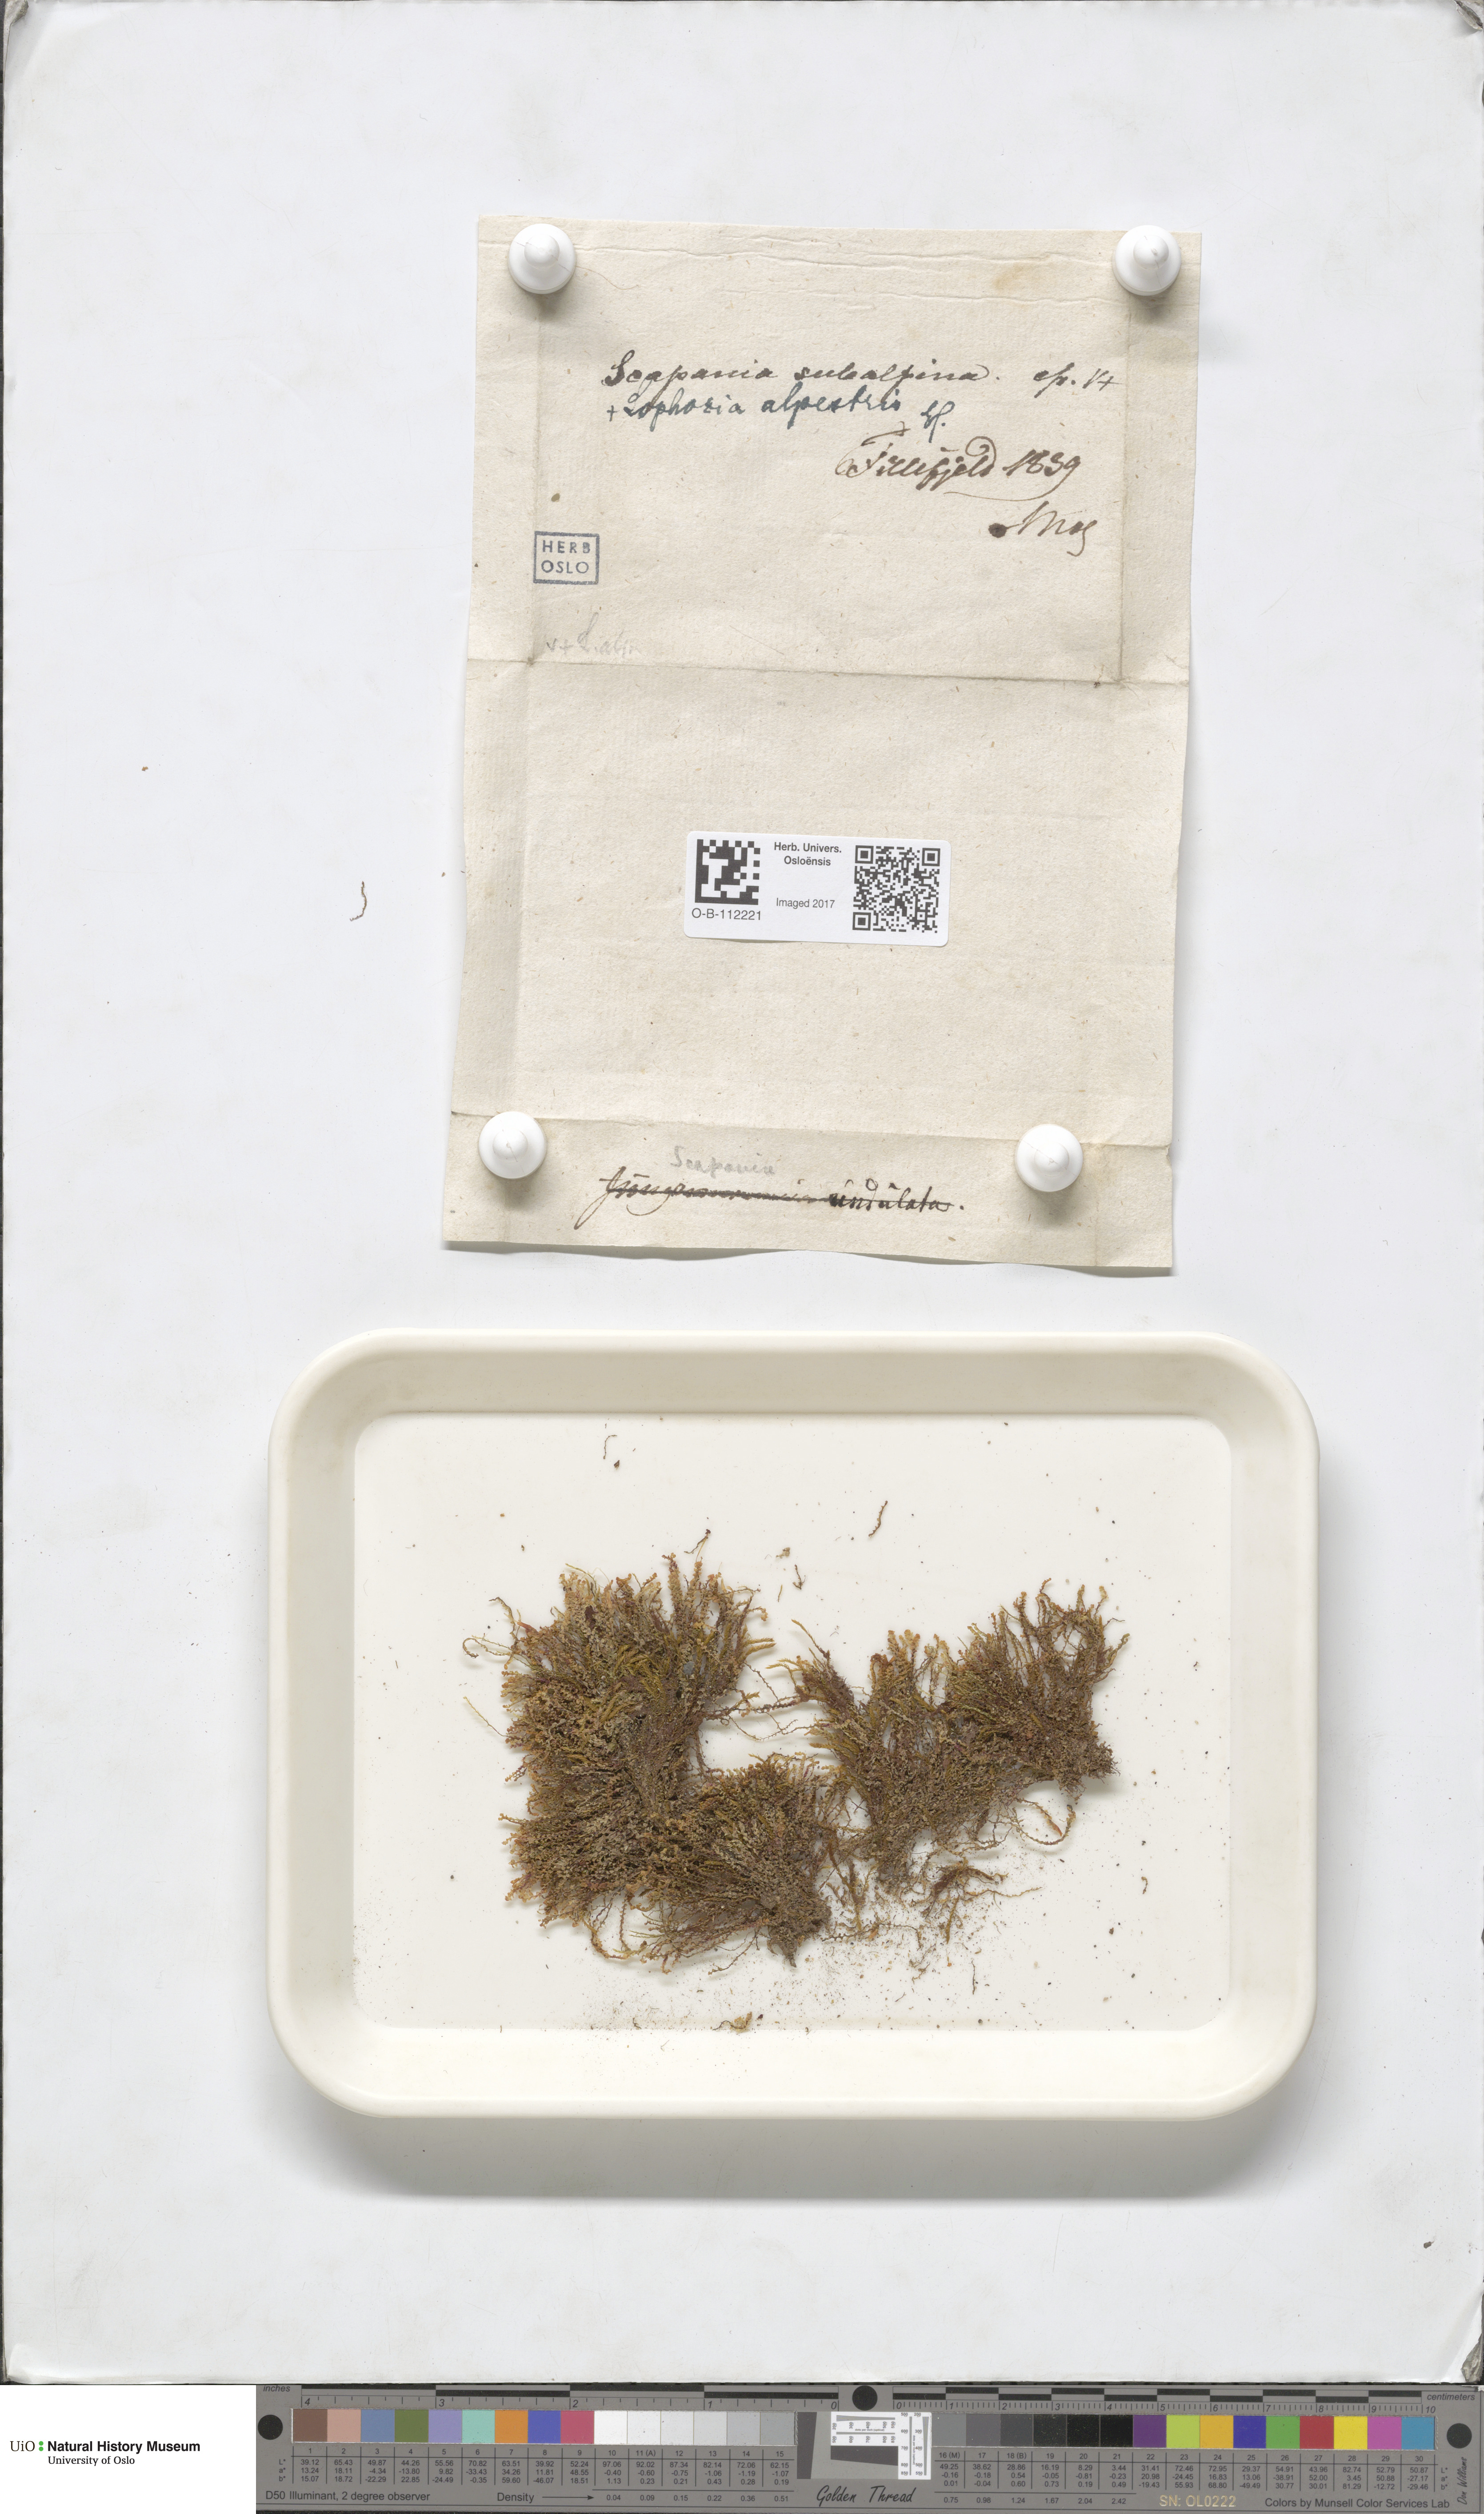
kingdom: Plantae
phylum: Marchantiophyta
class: Jungermanniopsida
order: Jungermanniales
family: Scapaniaceae
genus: Scapania
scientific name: Scapania subalpina
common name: Subalpine earwort
